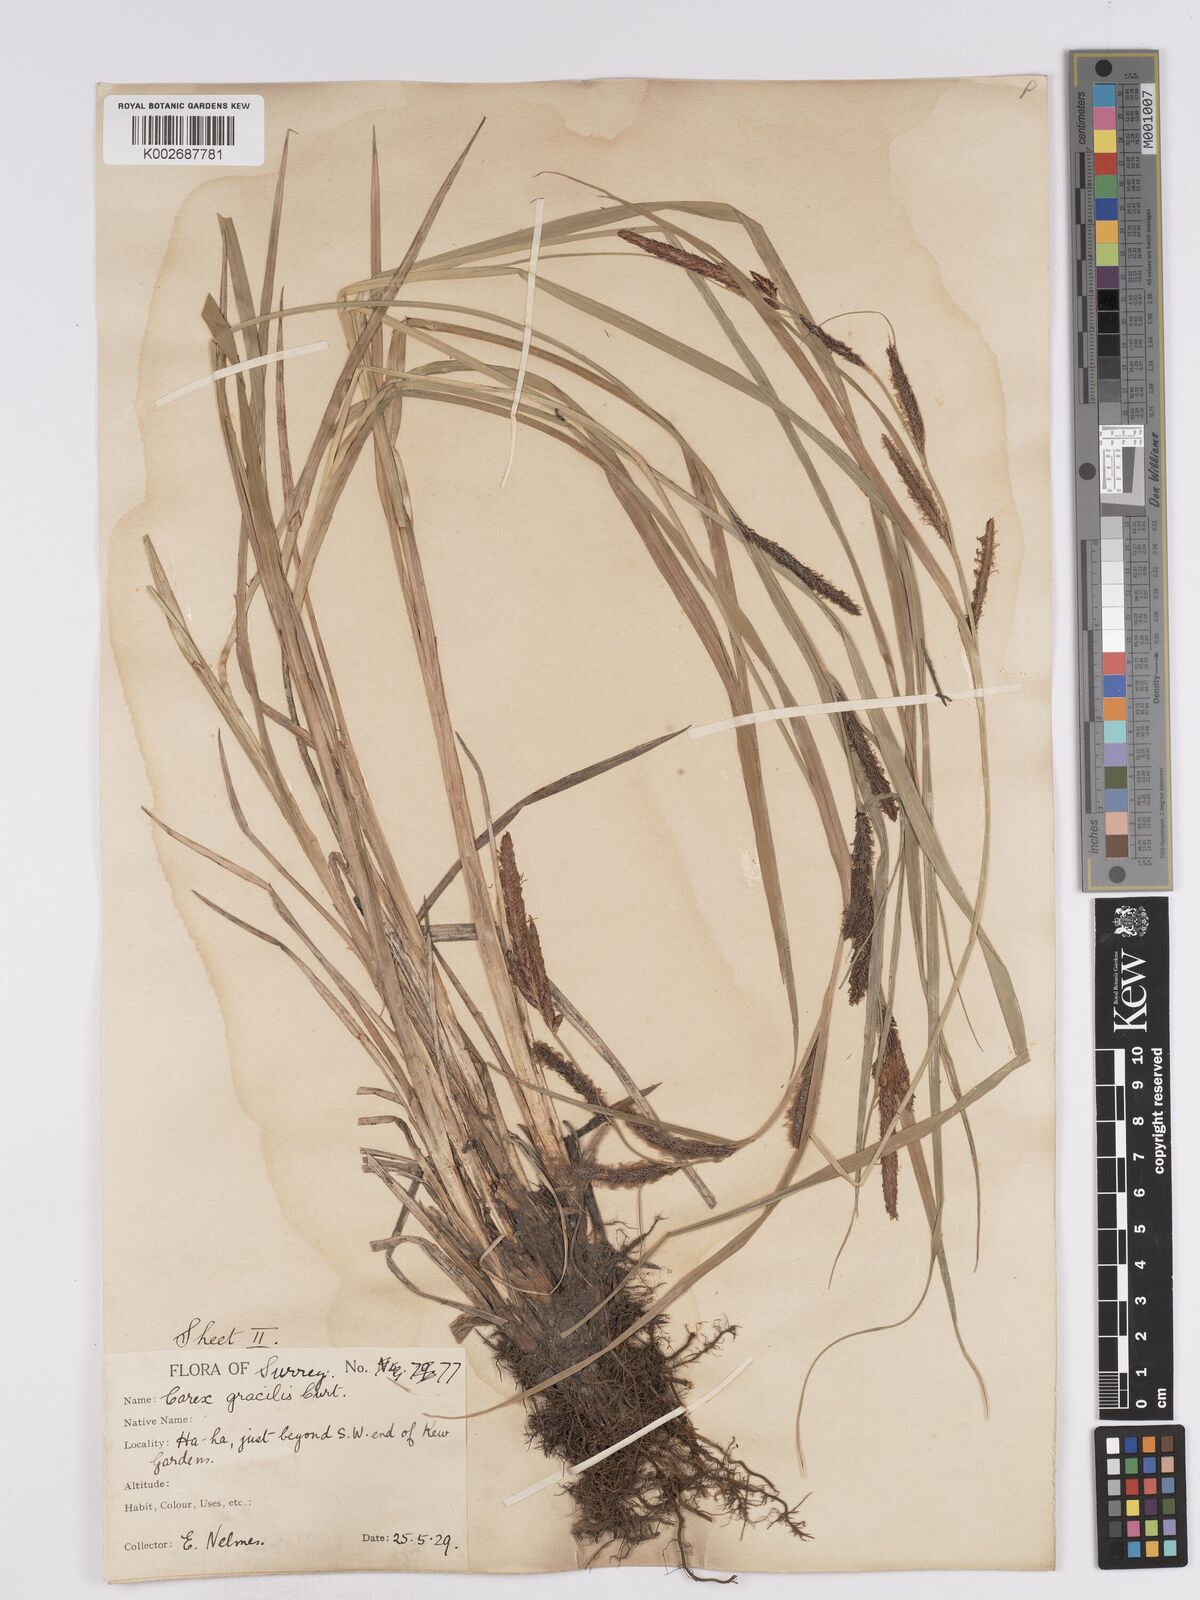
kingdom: Plantae
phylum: Tracheophyta
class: Liliopsida
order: Poales
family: Cyperaceae
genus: Carex
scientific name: Carex acuta
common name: Slender tufted-sedge
